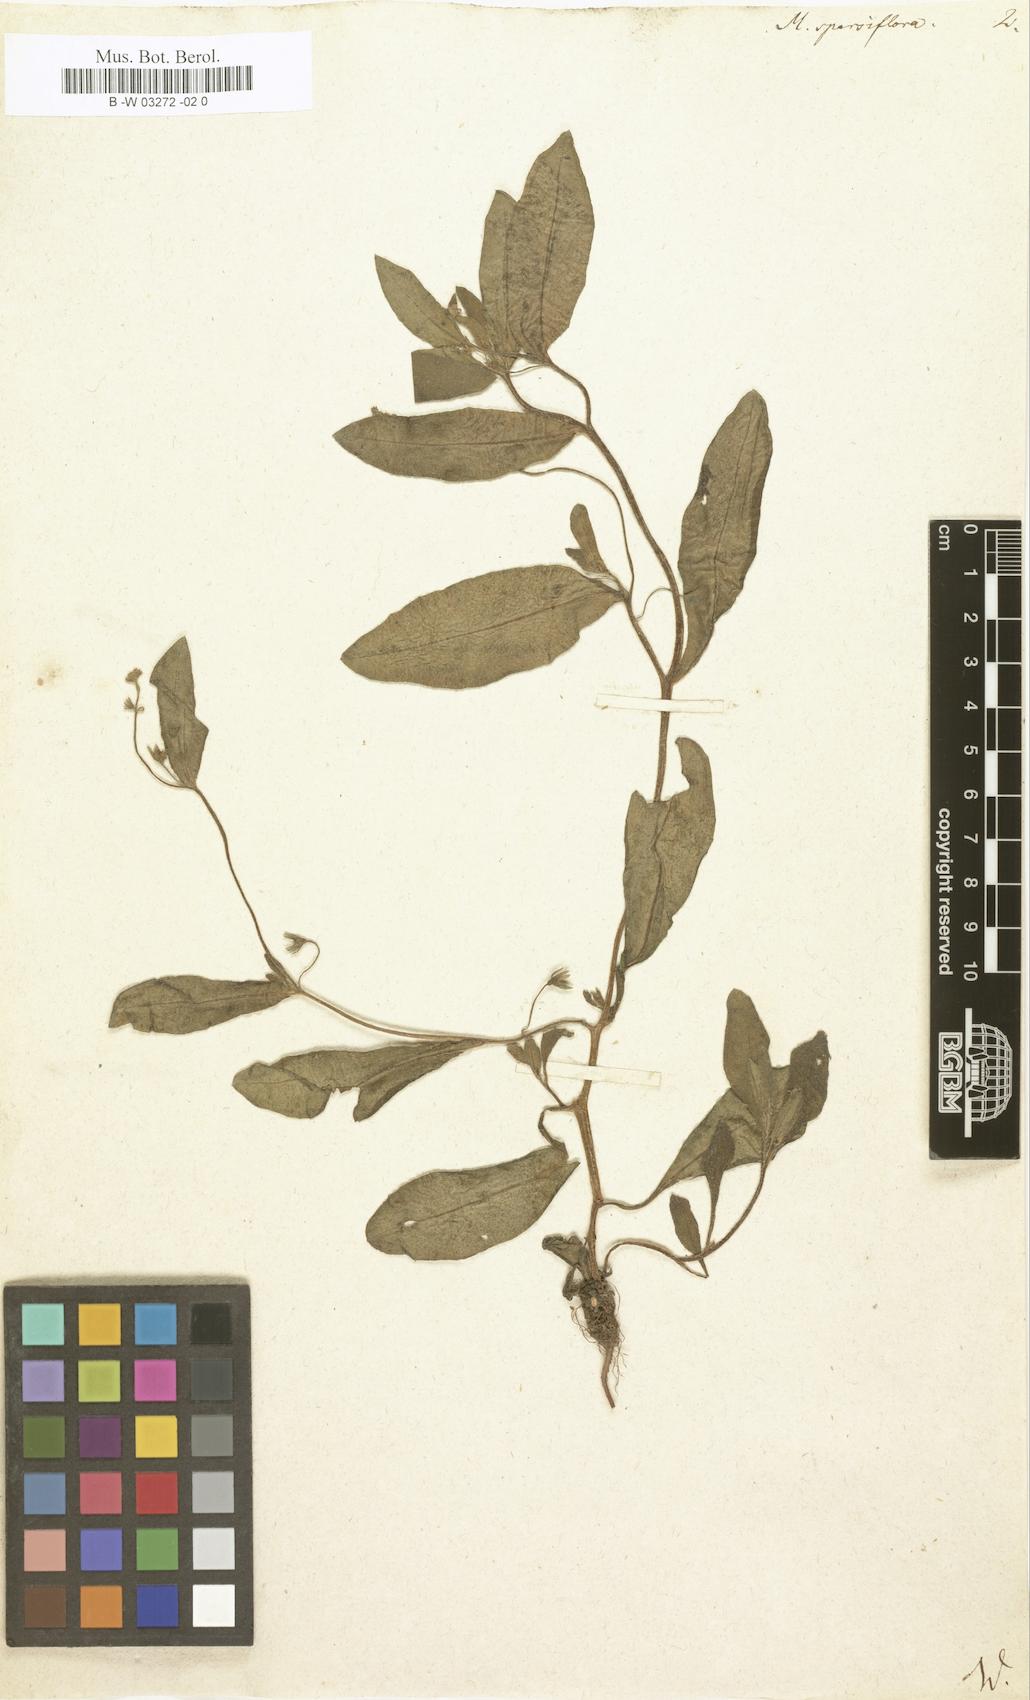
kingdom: Plantae
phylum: Tracheophyta
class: Magnoliopsida
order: Boraginales
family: Boraginaceae
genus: Myosotis
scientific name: Myosotis sparsiflora
